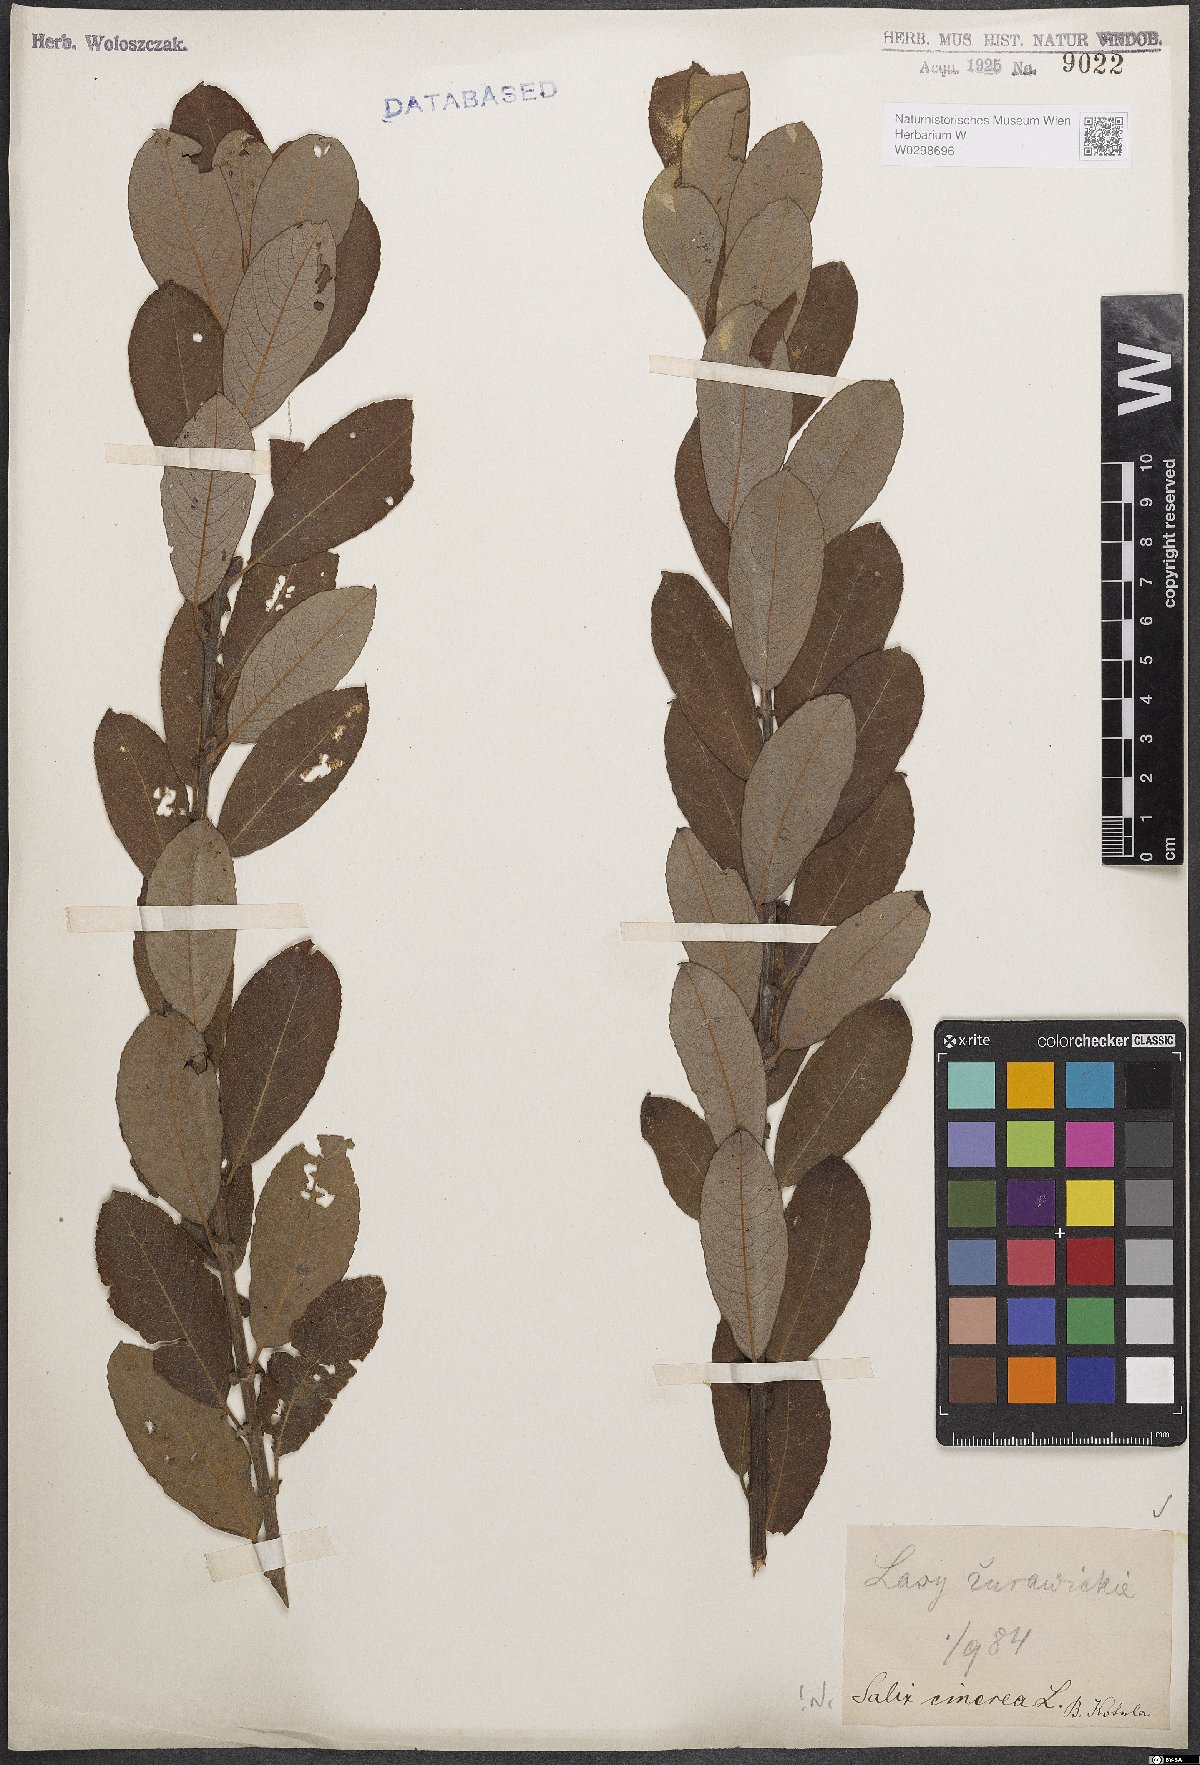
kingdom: Plantae
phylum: Tracheophyta
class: Magnoliopsida
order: Malpighiales
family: Salicaceae
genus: Salix
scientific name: Salix cinerea
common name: Common sallow
